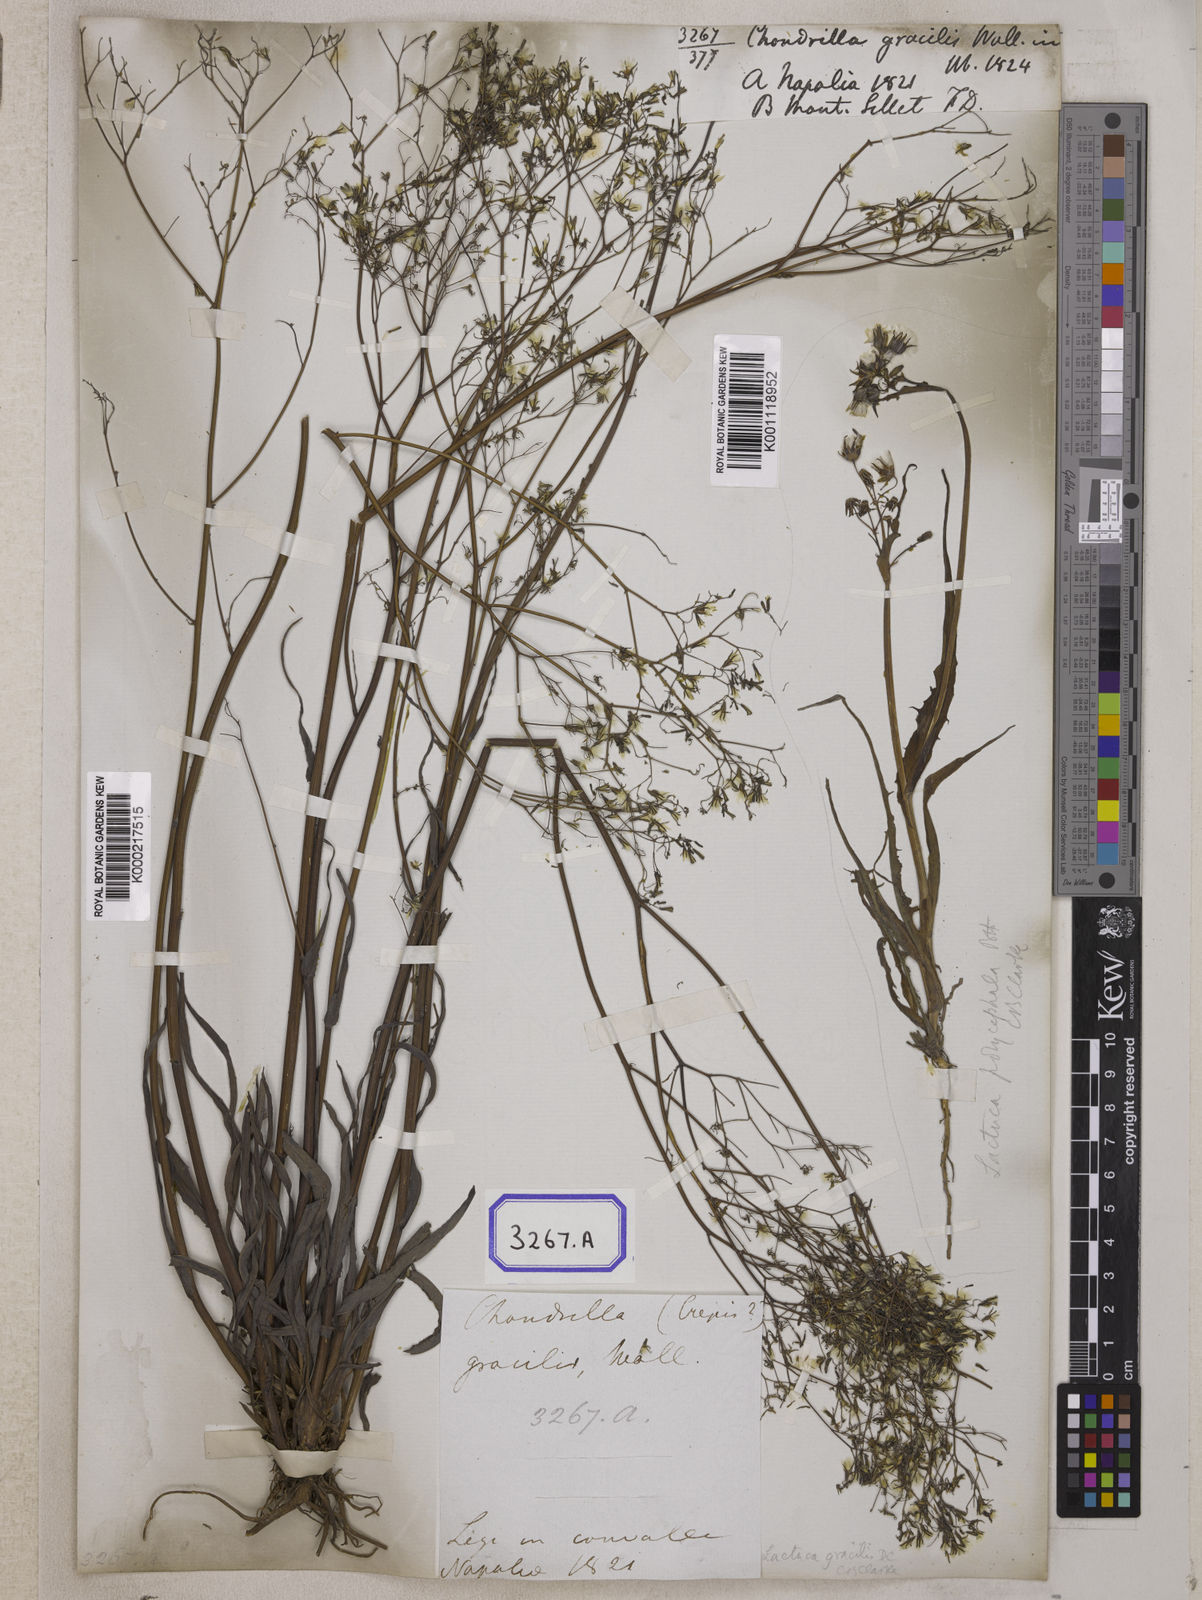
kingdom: Plantae
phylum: Tracheophyta
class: Magnoliopsida
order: Asterales
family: Asteraceae
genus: Ixeridium
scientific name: Ixeridium gracile
